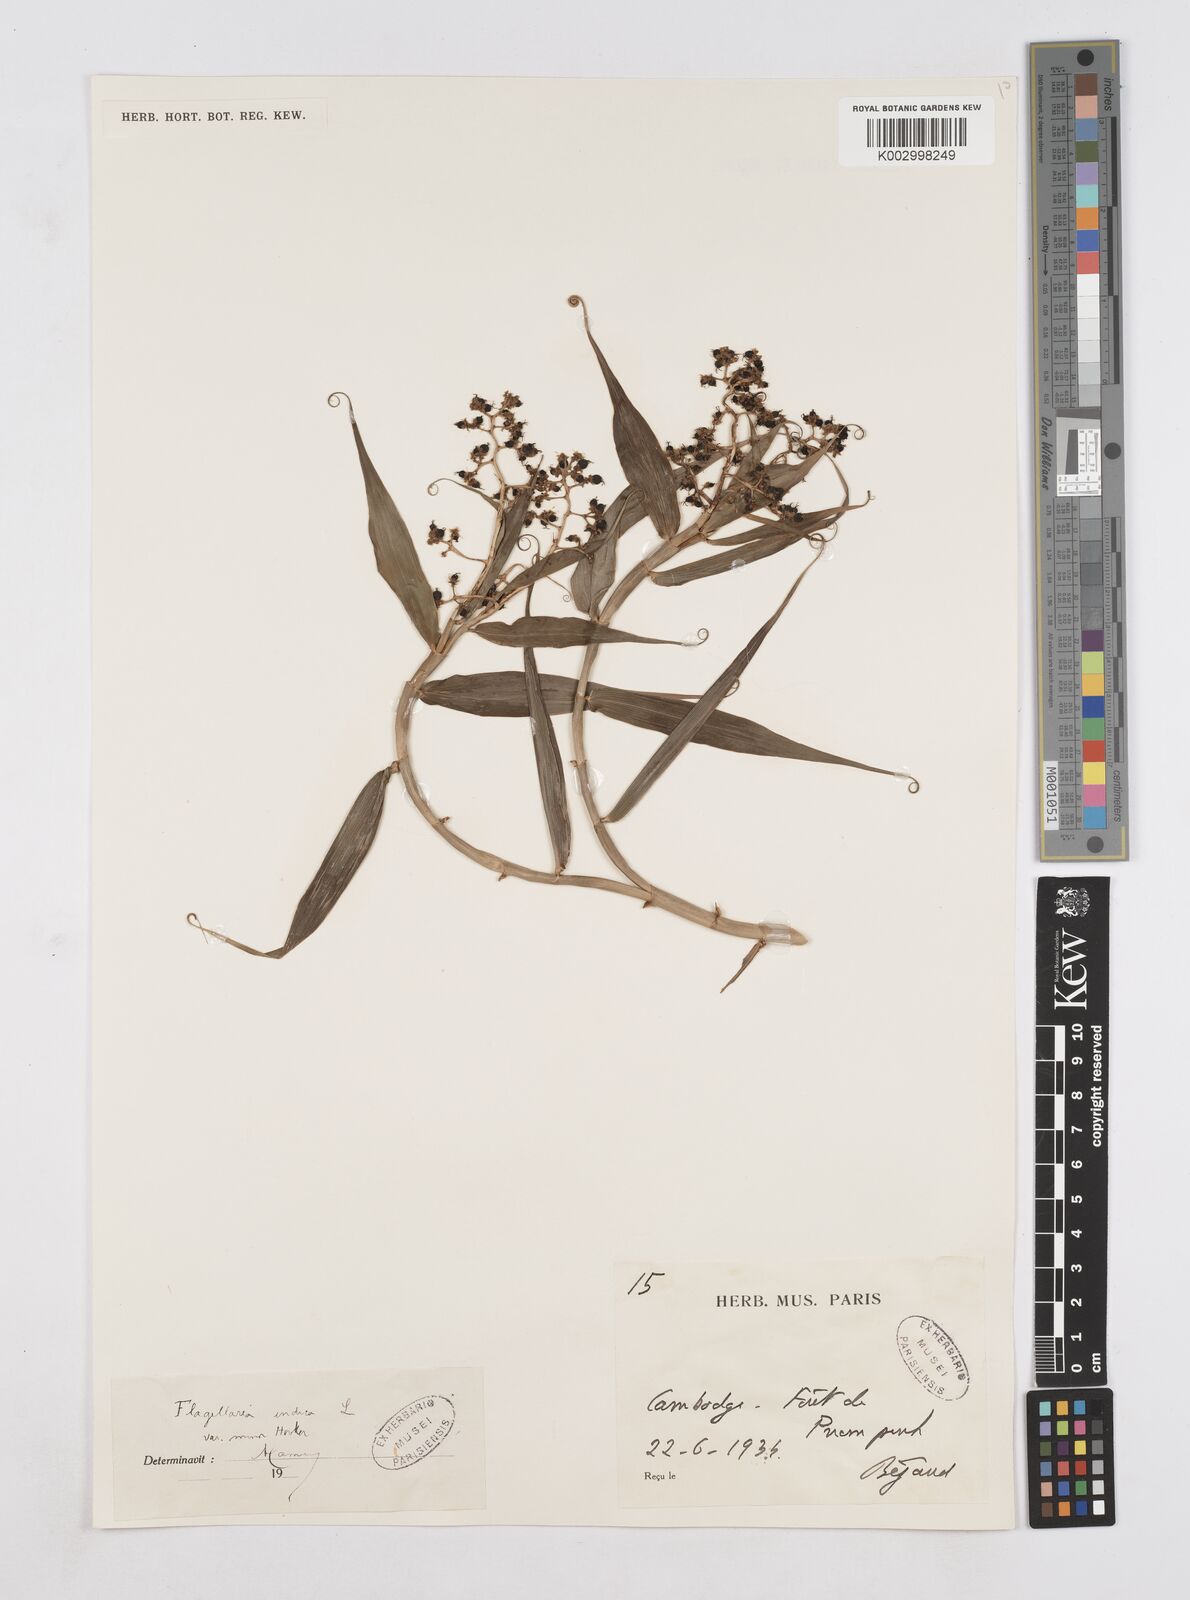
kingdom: Plantae
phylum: Tracheophyta
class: Liliopsida
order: Poales
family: Flagellariaceae
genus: Flagellaria
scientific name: Flagellaria indica
